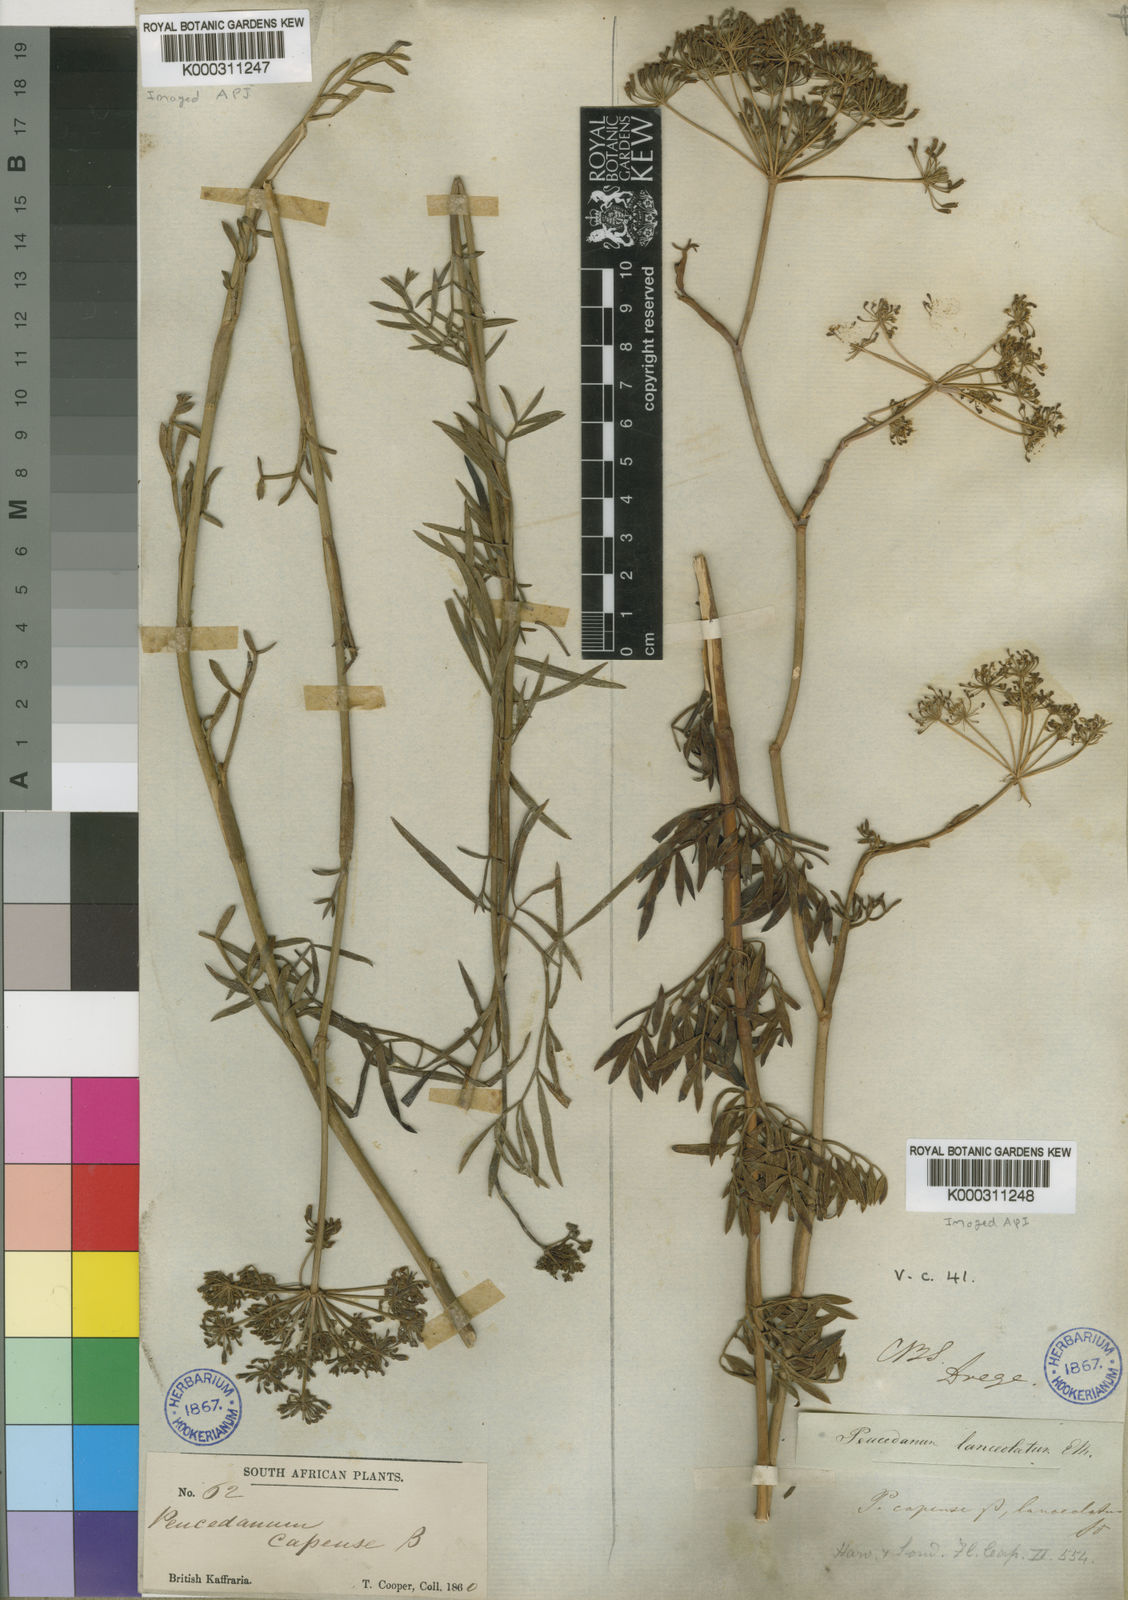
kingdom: Plantae
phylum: Tracheophyta
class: Magnoliopsida
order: Apiales
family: Apiaceae
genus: Notobubon
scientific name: Notobubon
